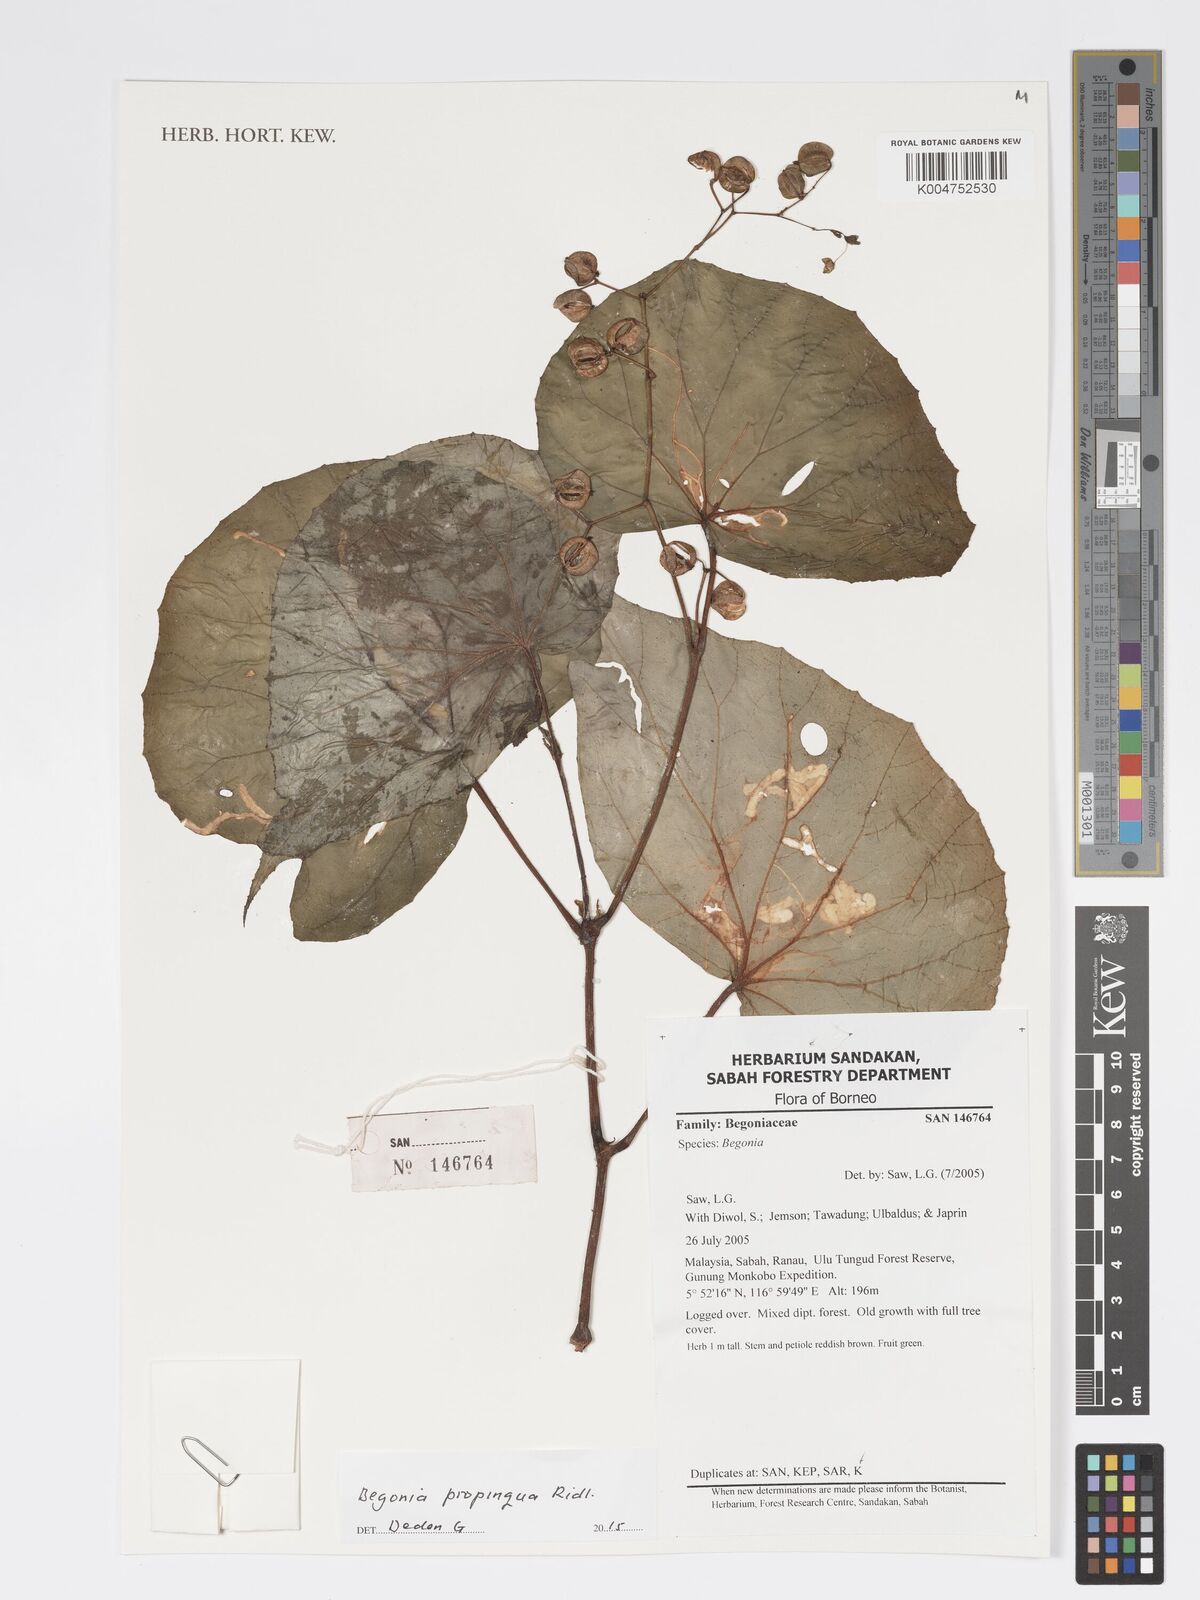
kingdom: Plantae
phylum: Tracheophyta
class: Magnoliopsida
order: Cucurbitales
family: Begoniaceae
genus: Begonia
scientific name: Begonia propinqua
